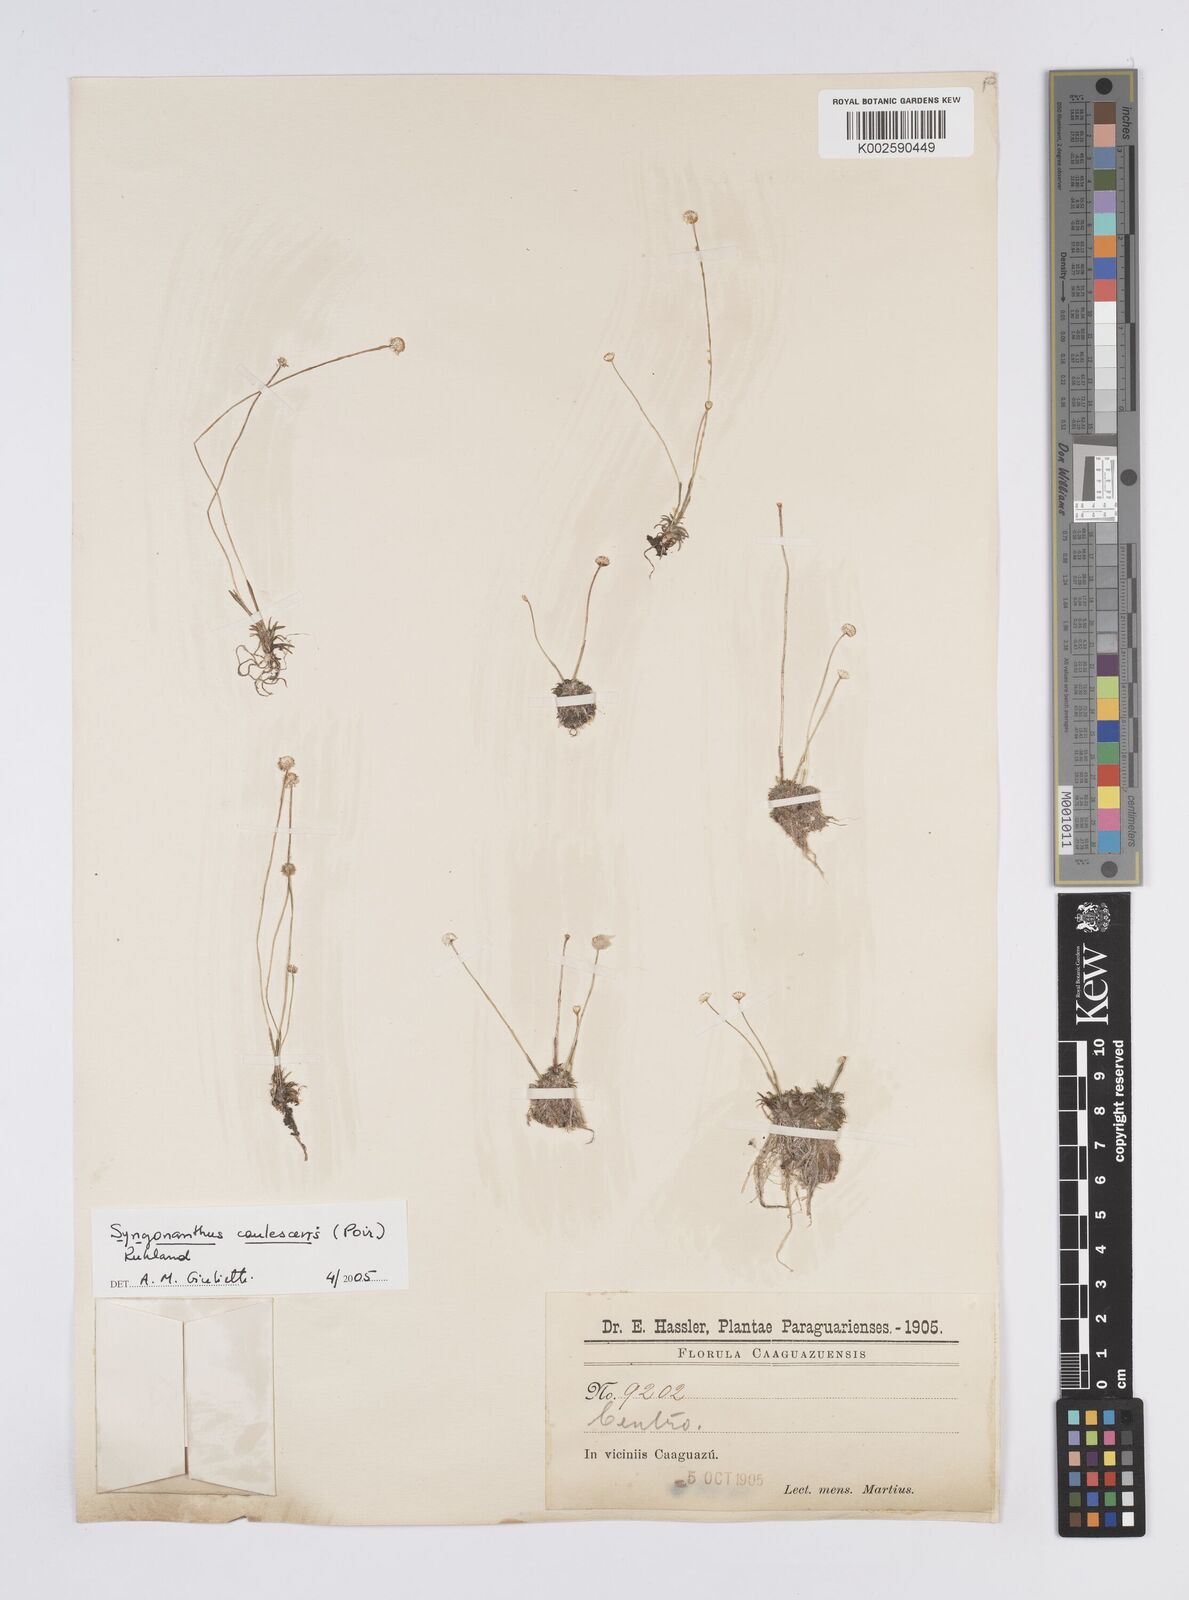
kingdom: Plantae
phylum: Tracheophyta
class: Liliopsida
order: Poales
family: Eriocaulaceae
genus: Syngonanthus
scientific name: Syngonanthus caulescens
